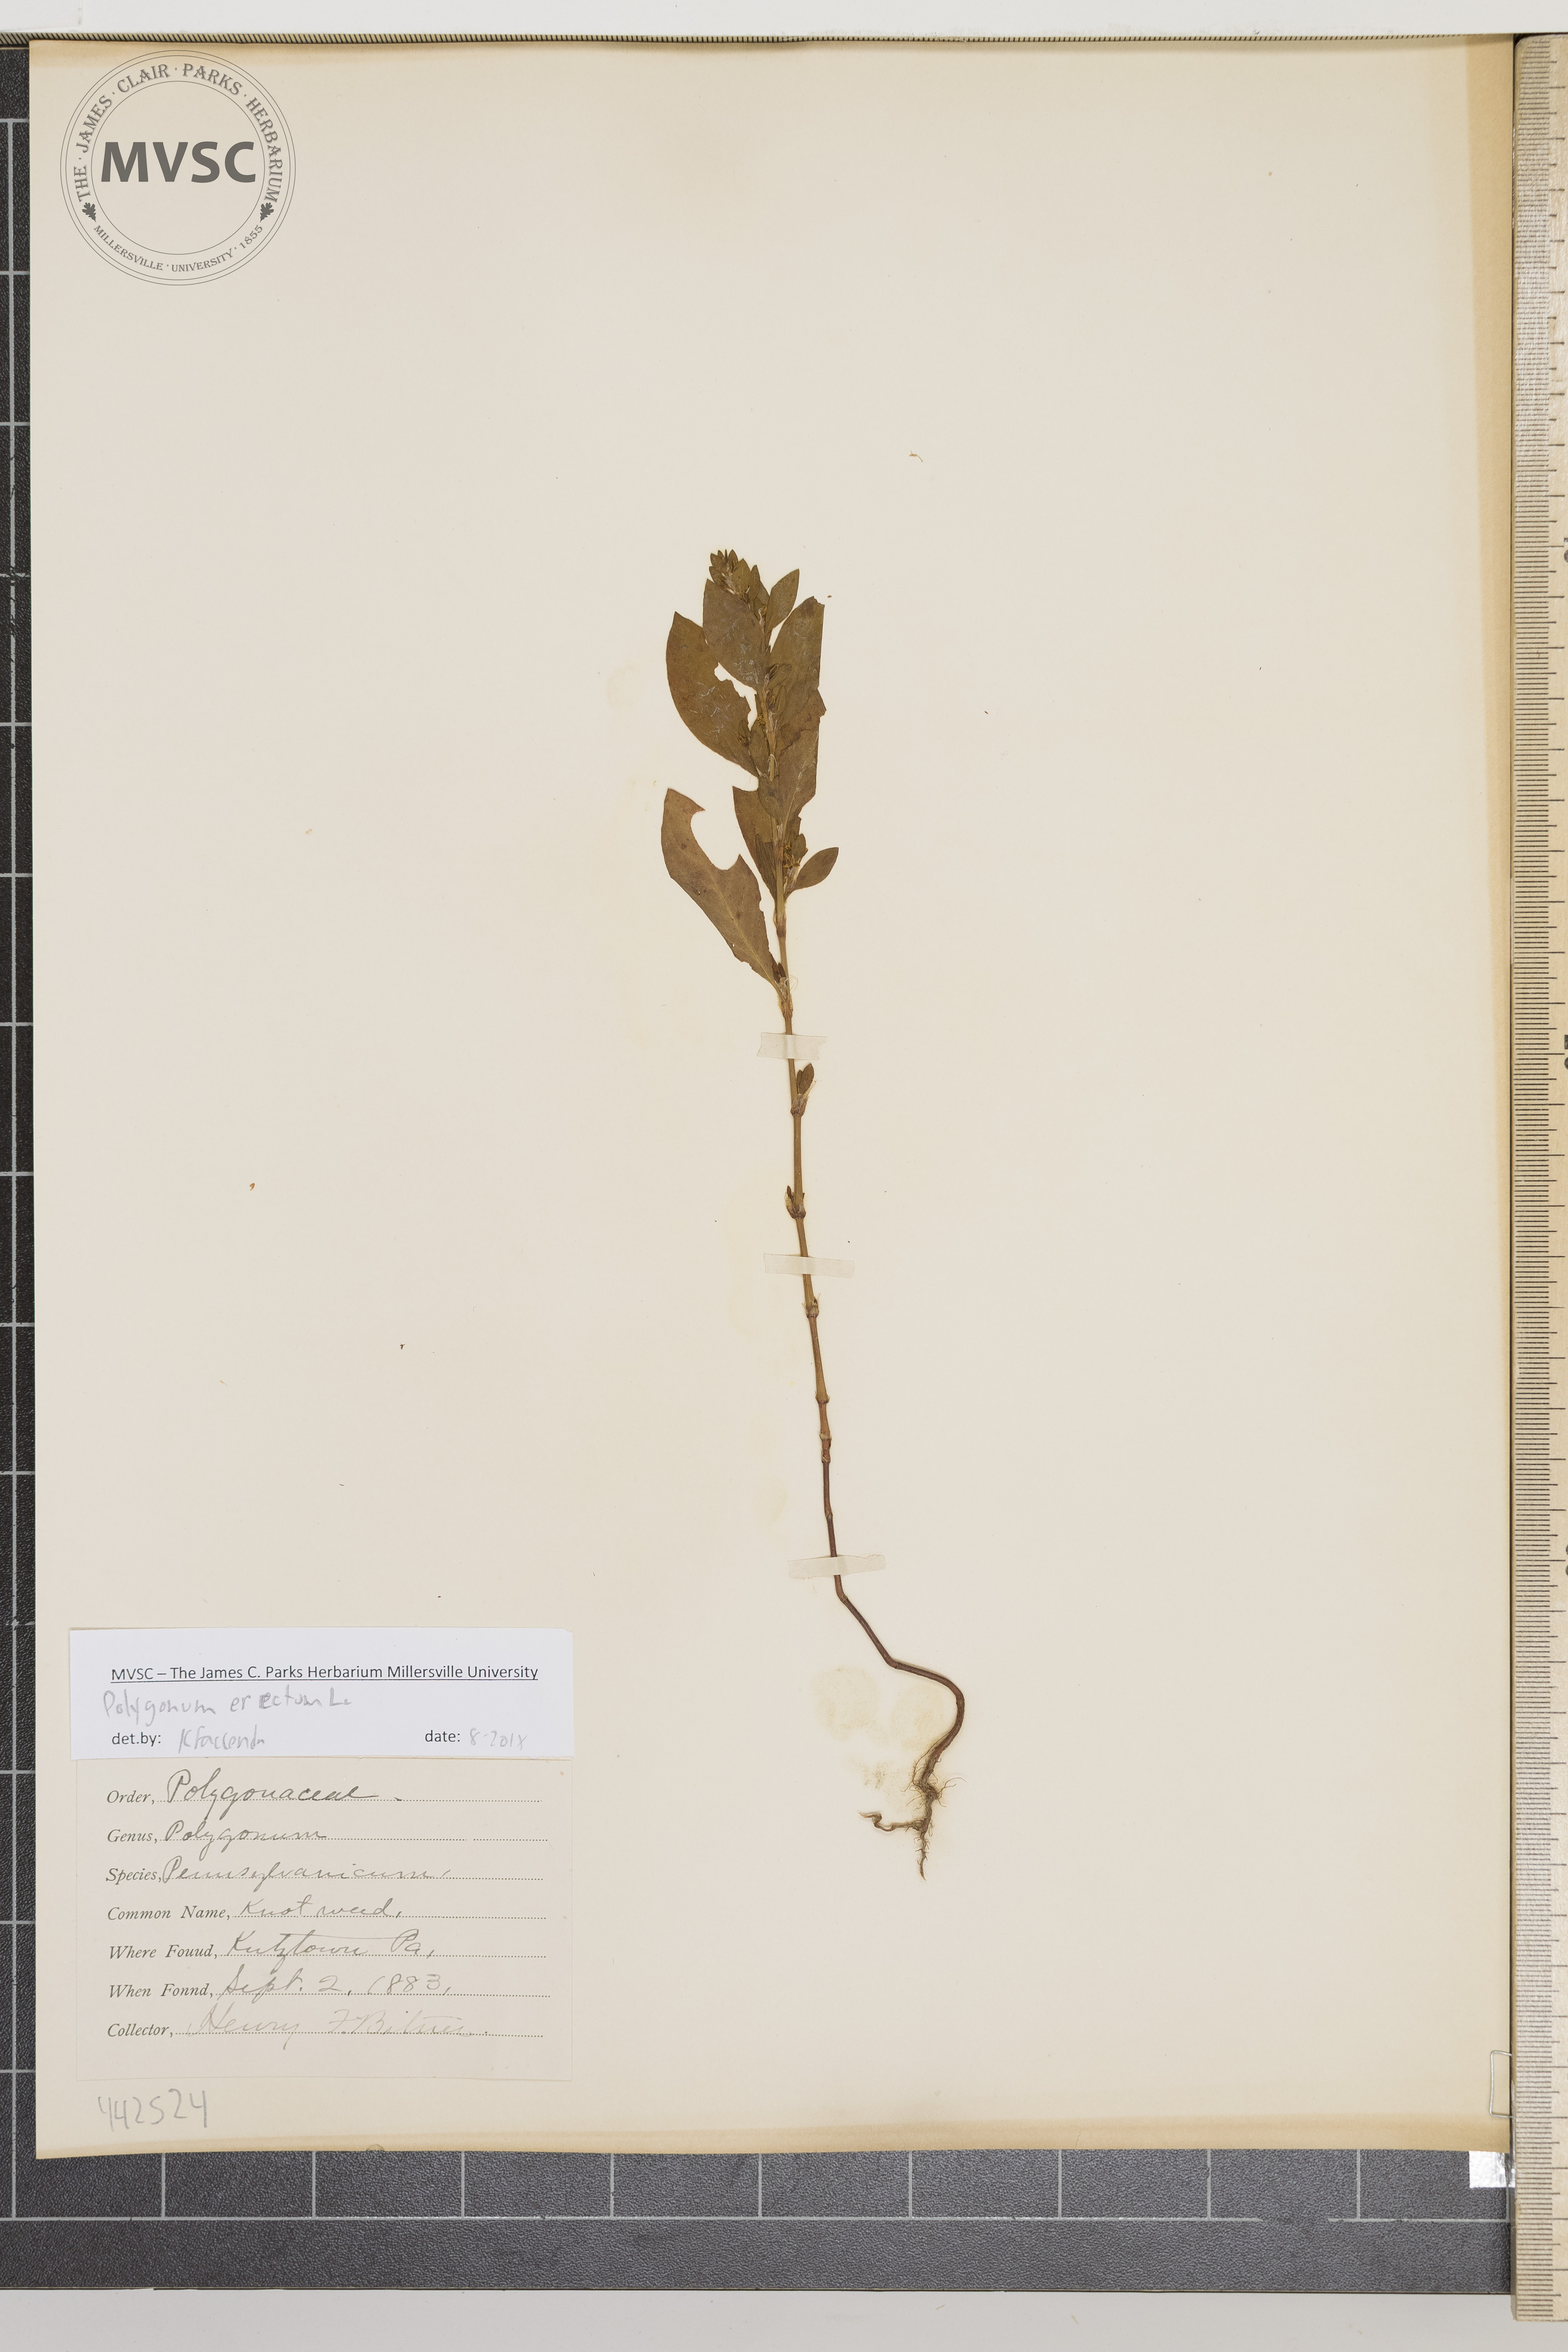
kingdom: Plantae
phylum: Tracheophyta
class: Magnoliopsida
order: Caryophyllales
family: Polygonaceae
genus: Polygonum
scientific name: Polygonum erectum
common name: Knotweed
